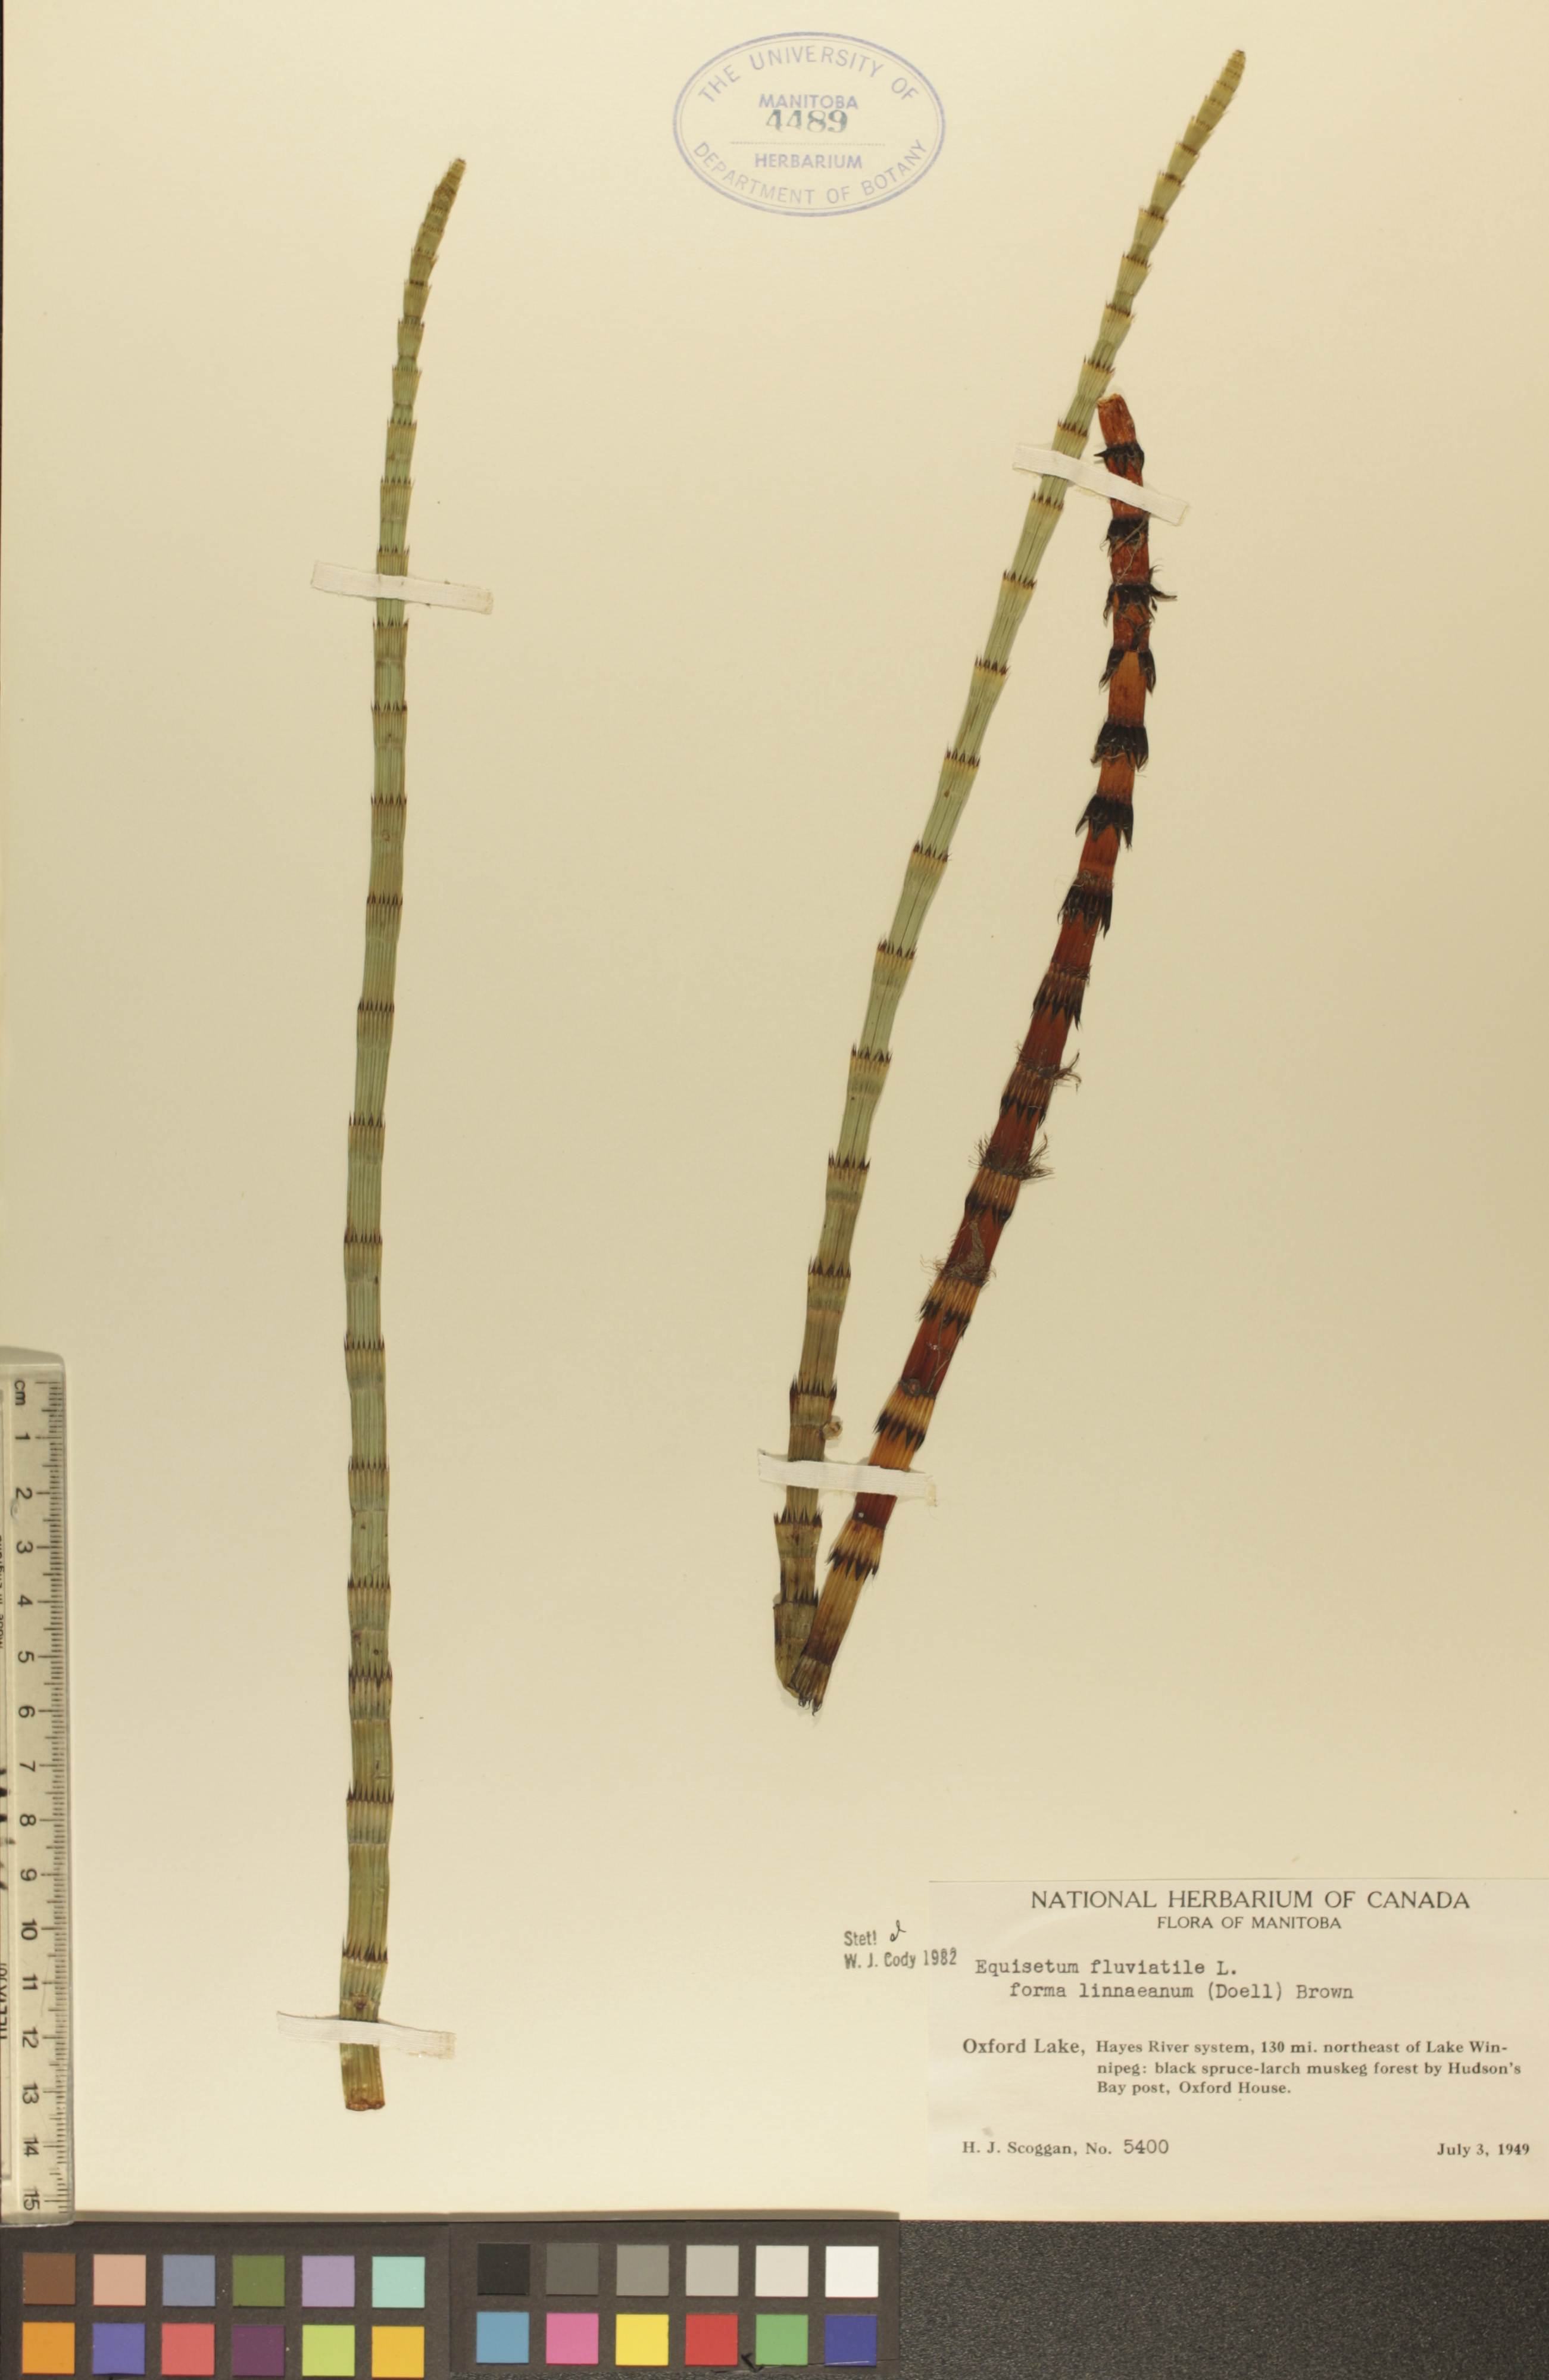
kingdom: Plantae
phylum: Tracheophyta
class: Polypodiopsida
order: Equisetales
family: Equisetaceae
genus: Equisetum
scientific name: Equisetum fluviatile
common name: Water horsetail
